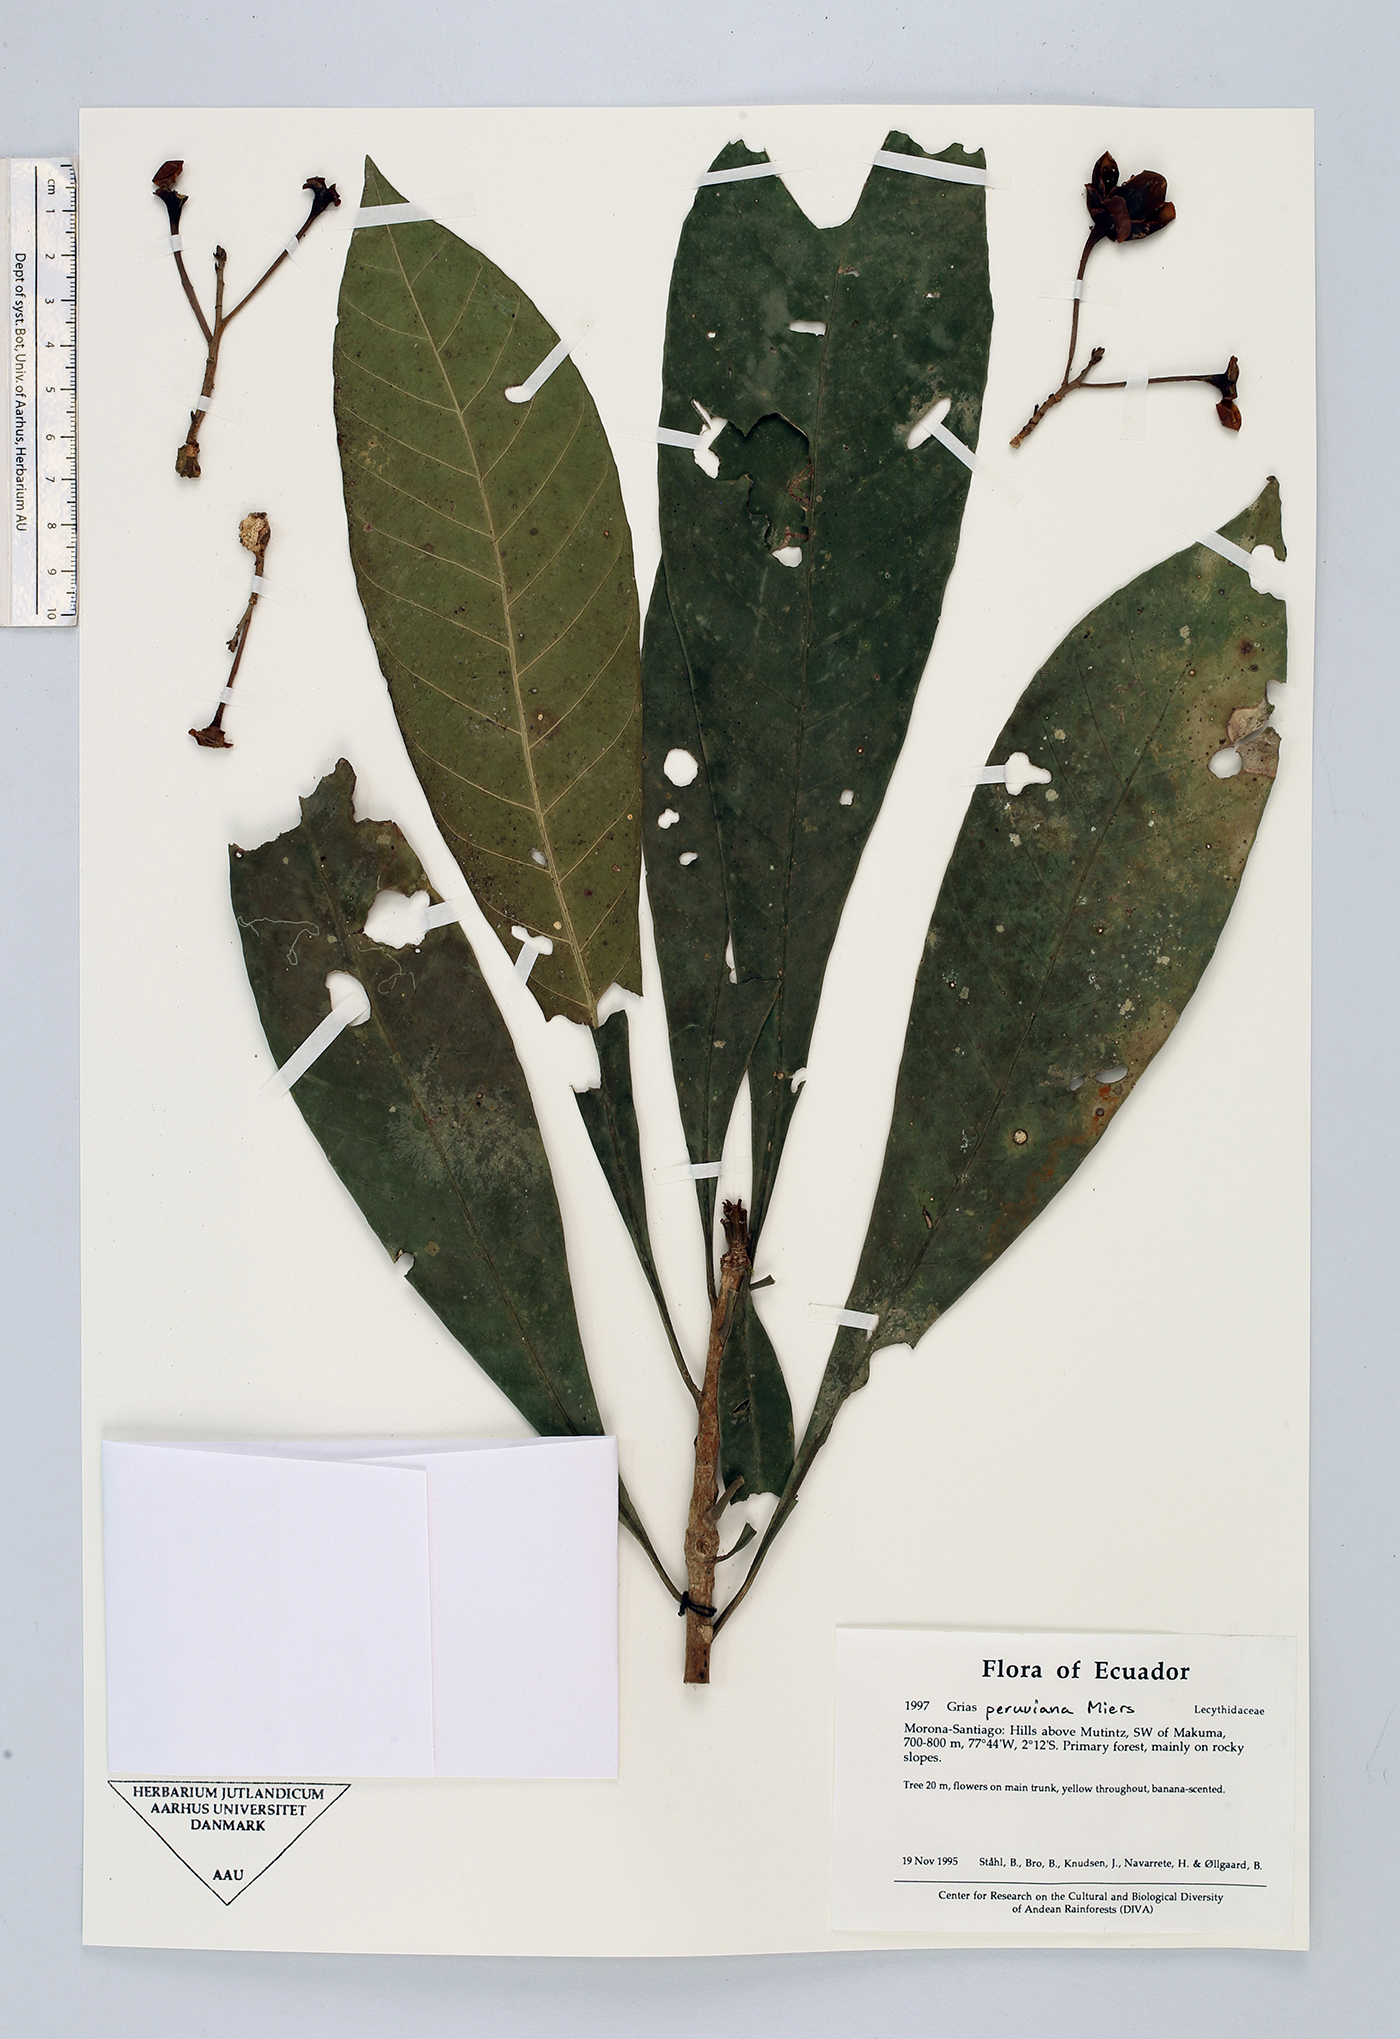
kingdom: Plantae
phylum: Tracheophyta
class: Magnoliopsida
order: Ericales
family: Lecythidaceae
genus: Grias
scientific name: Grias peruviana
